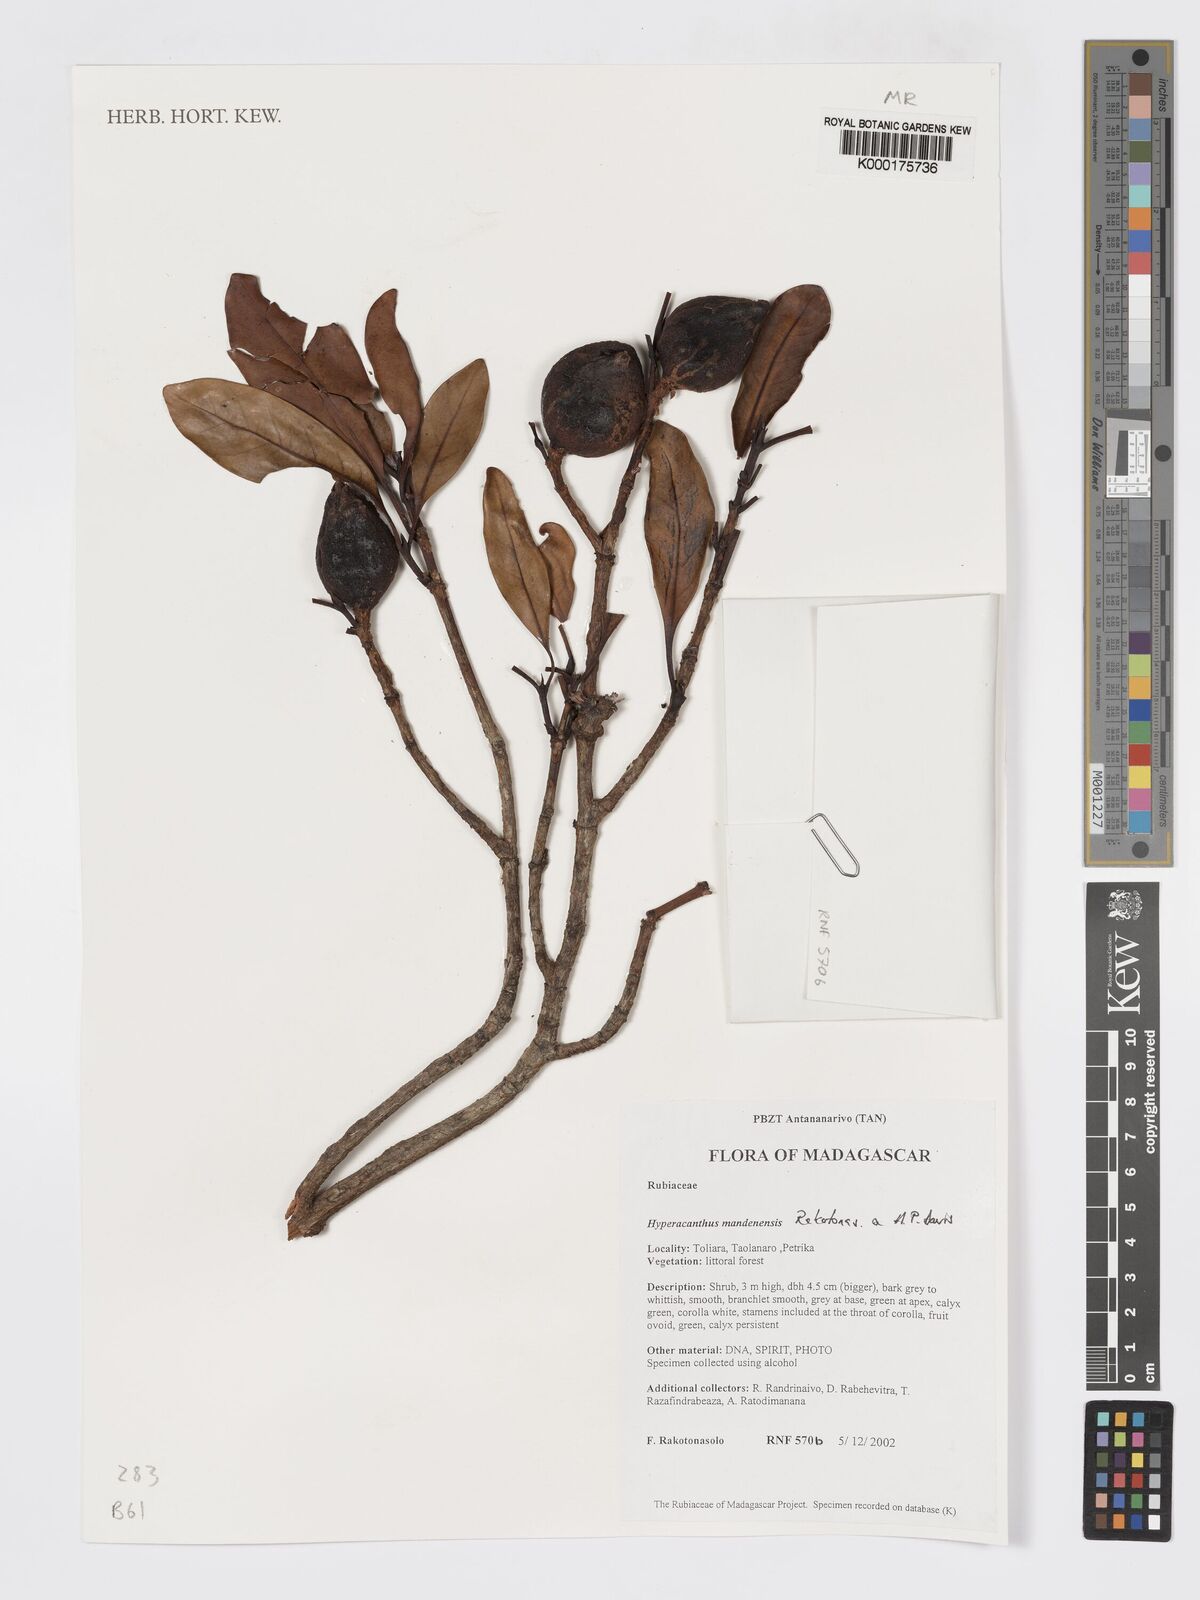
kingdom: Plantae
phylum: Tracheophyta
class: Magnoliopsida
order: Gentianales
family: Rubiaceae
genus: Hyperacanthus
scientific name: Hyperacanthus mandenensis
